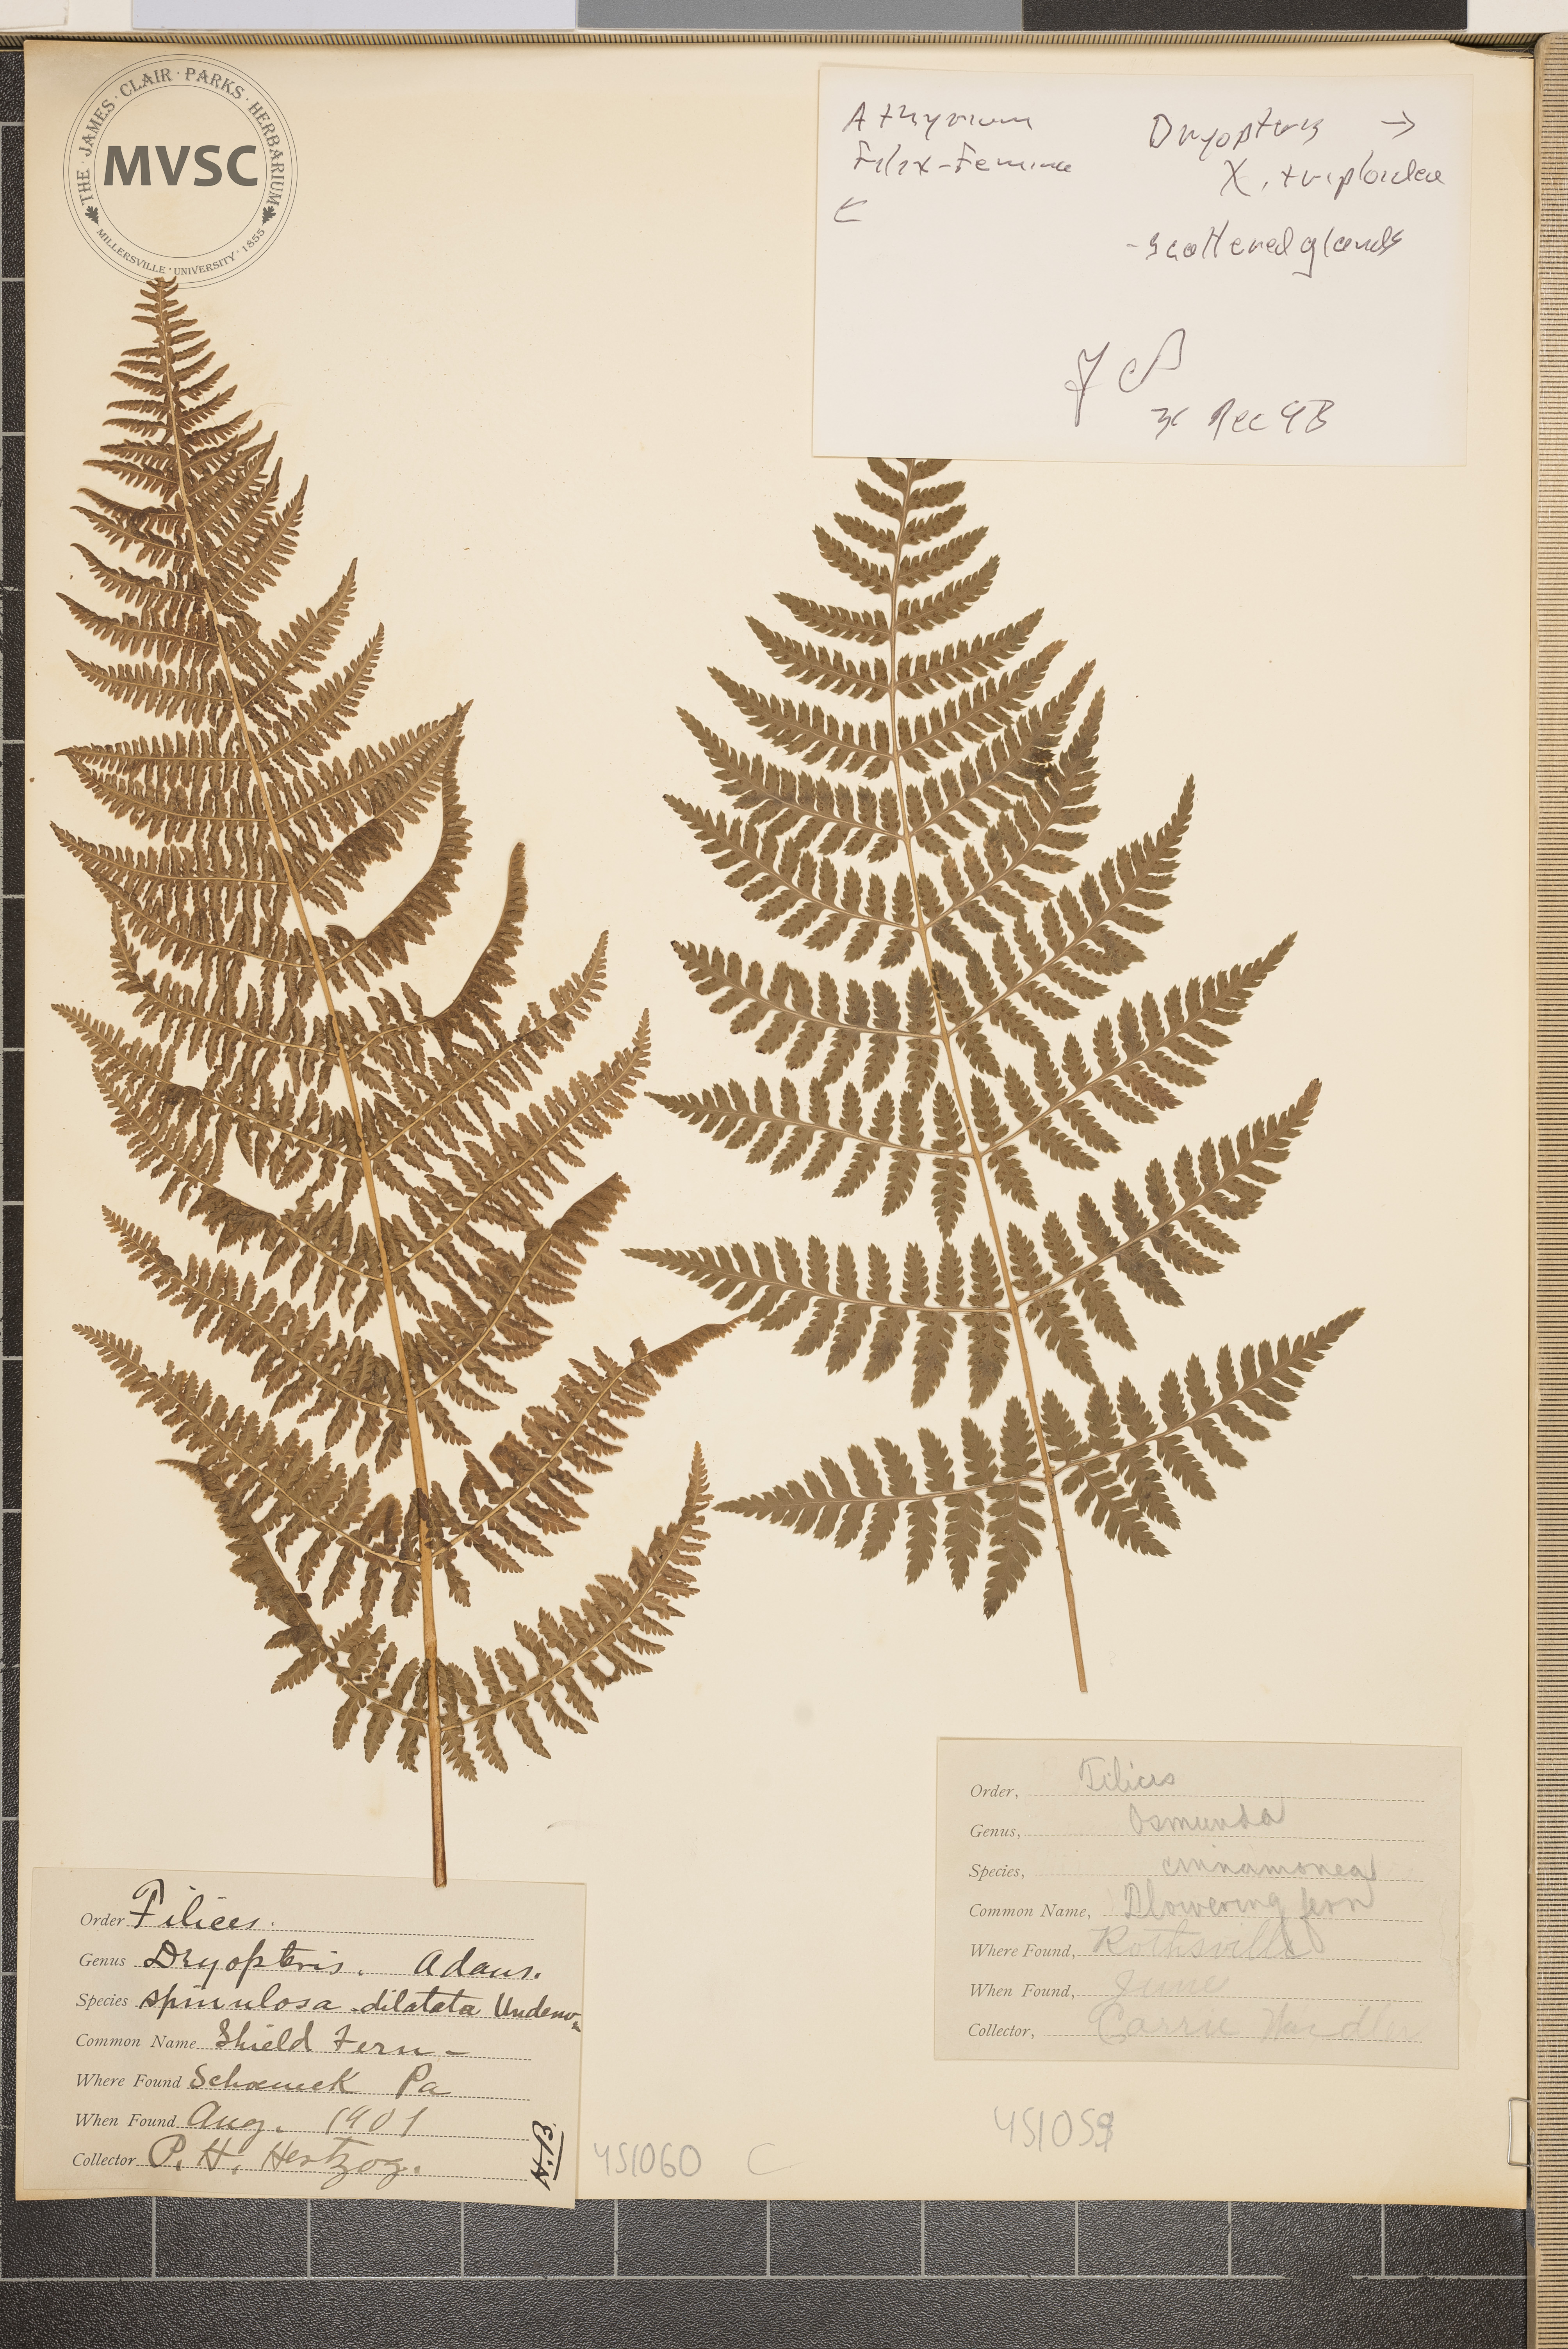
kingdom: Plantae
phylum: Tracheophyta
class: Polypodiopsida
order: Polypodiales
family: Athyriaceae
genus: Athyrium
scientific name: Athyrium filix-femina
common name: Lady fern
